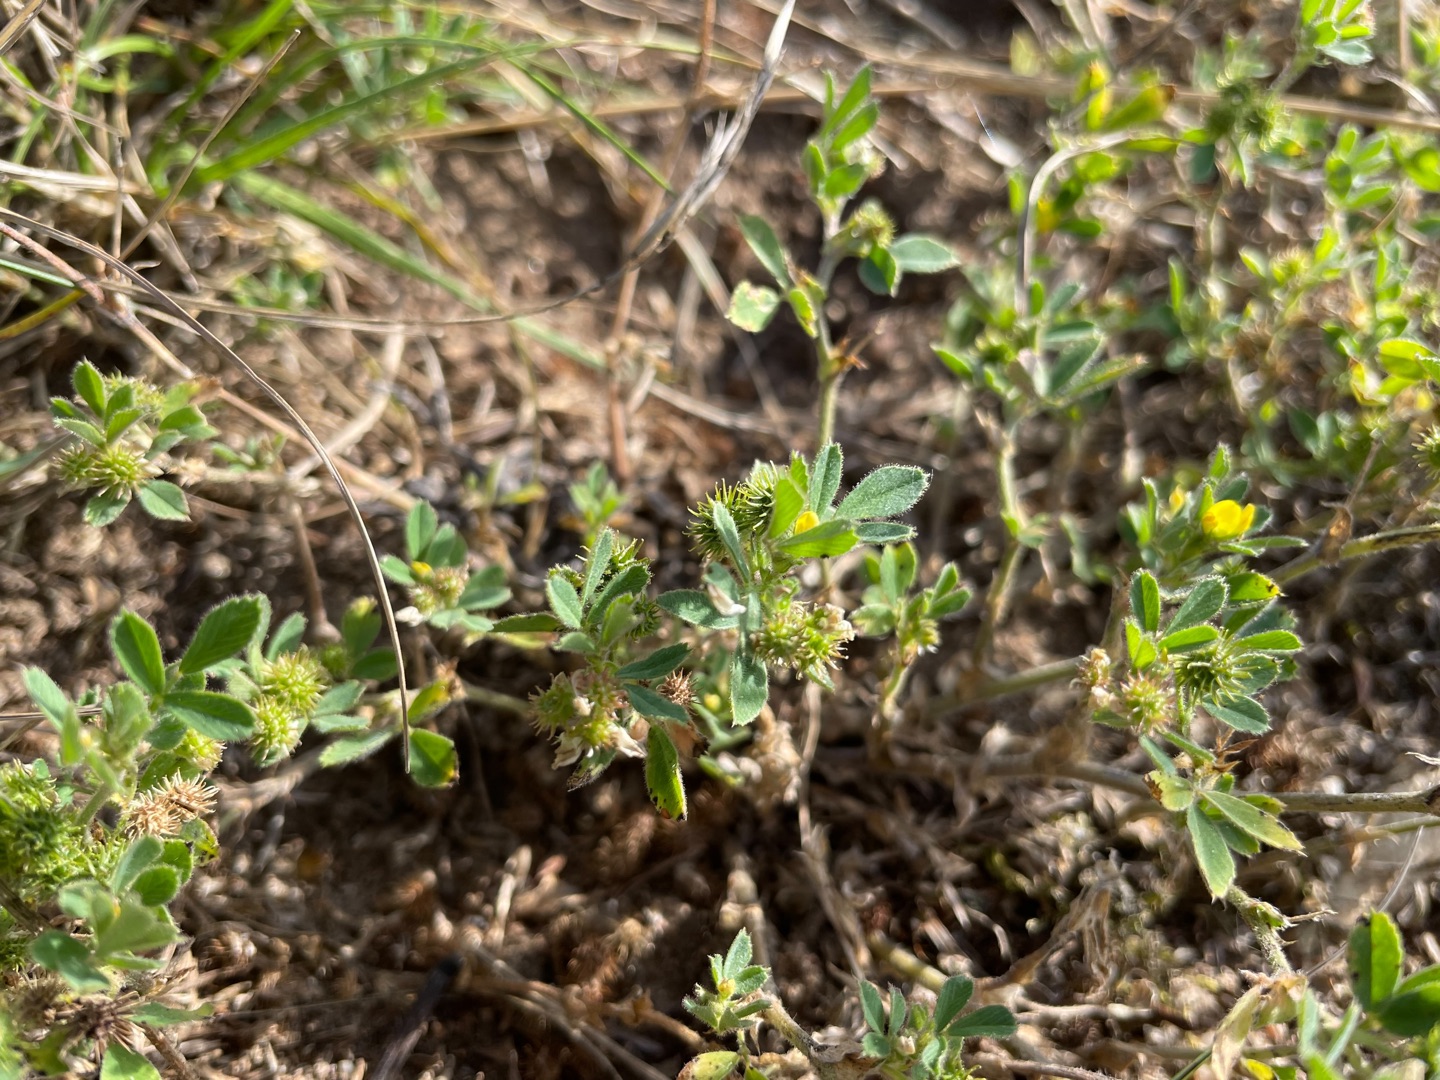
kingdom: Plantae
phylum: Tracheophyta
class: Magnoliopsida
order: Fabales
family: Fabaceae
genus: Medicago
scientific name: Medicago minima
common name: Liden sneglebælg
